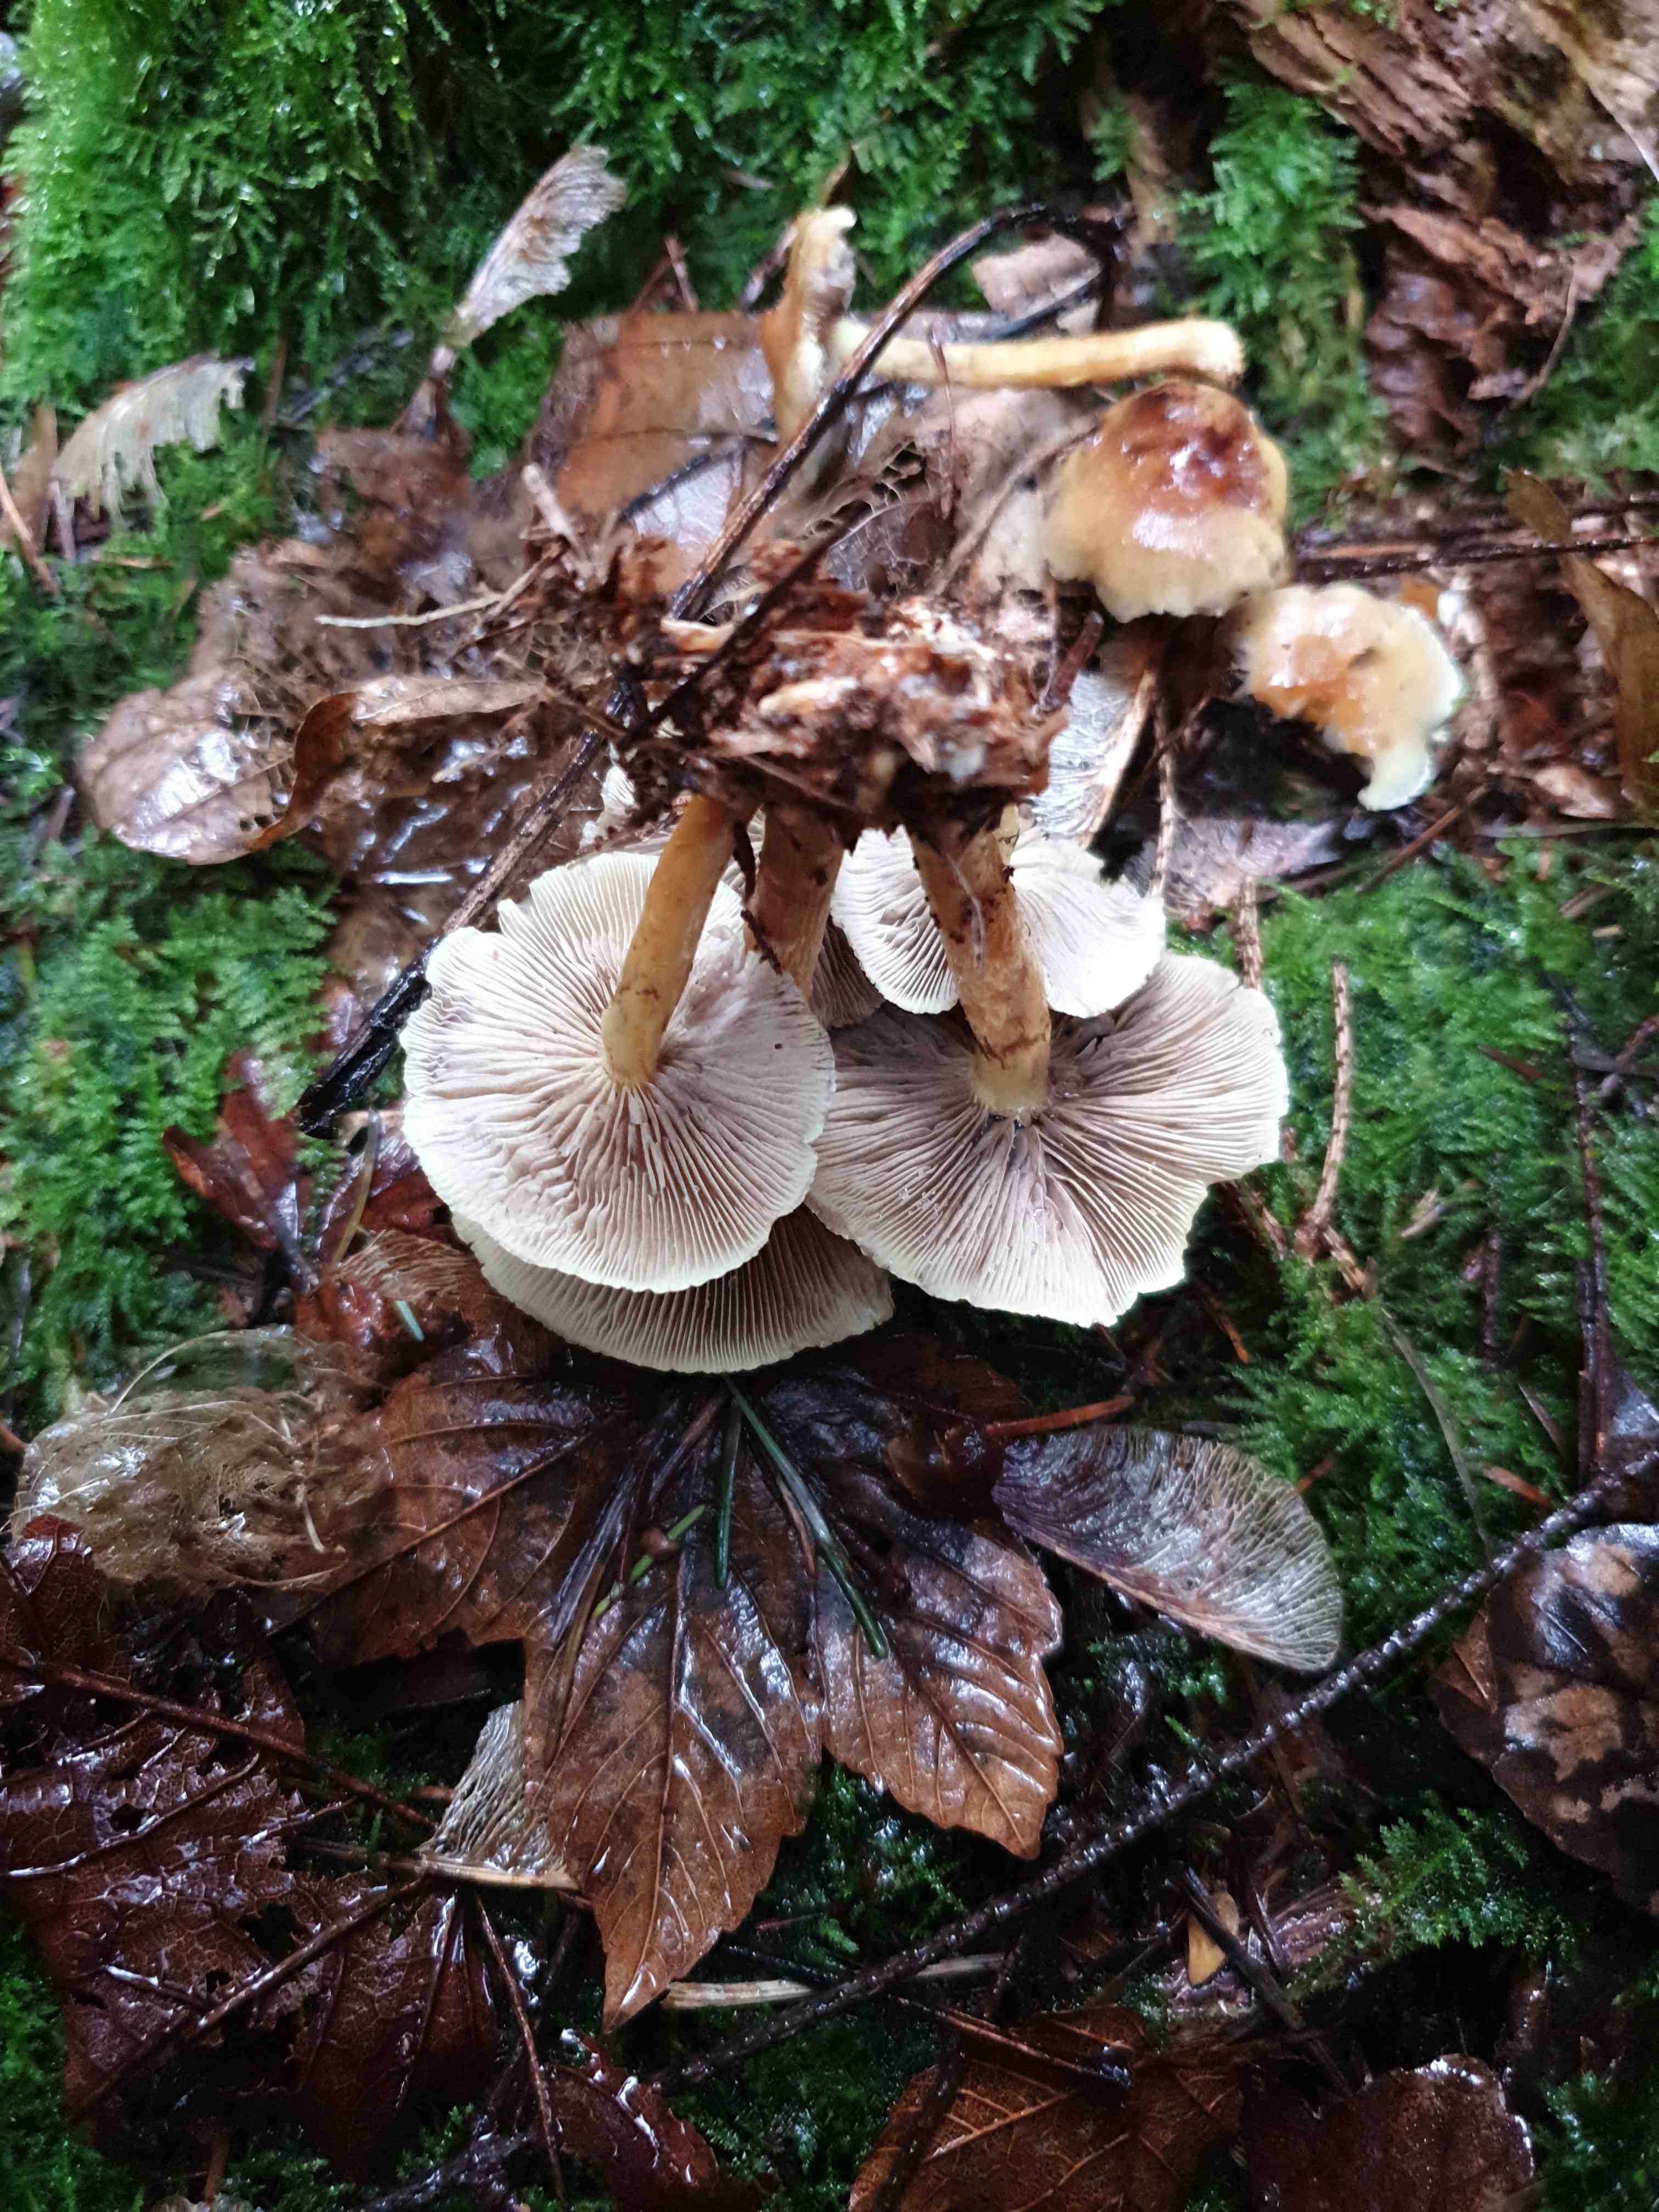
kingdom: Fungi
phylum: Basidiomycota
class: Agaricomycetes
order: Agaricales
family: Strophariaceae
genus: Hypholoma
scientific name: Hypholoma fasciculare
